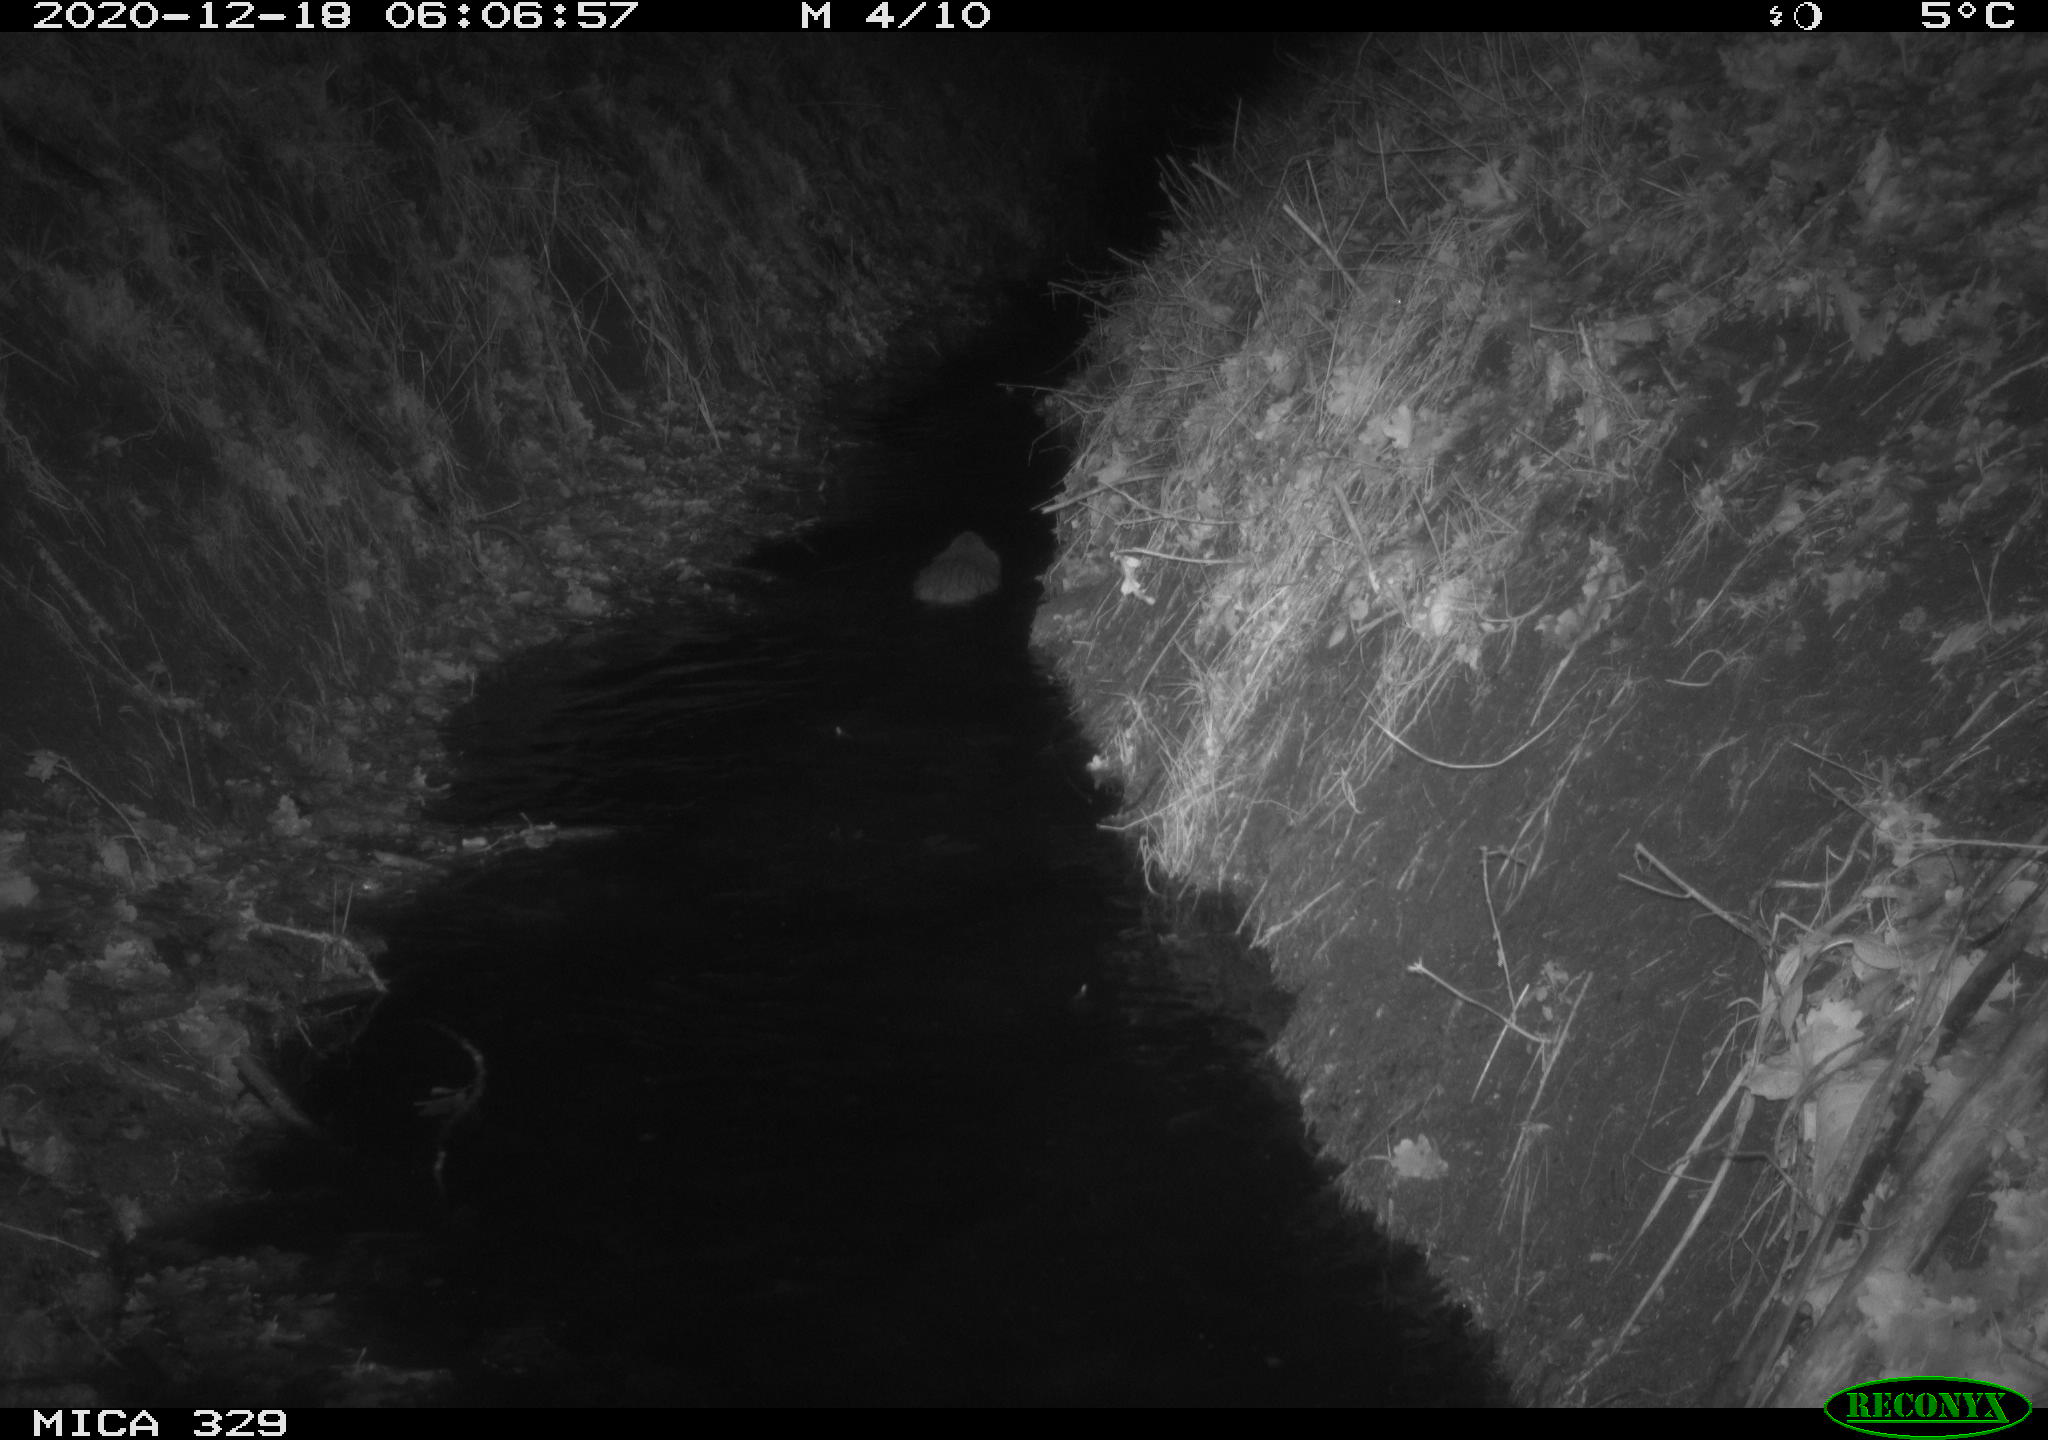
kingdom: Animalia
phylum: Chordata
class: Mammalia
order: Rodentia
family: Cricetidae
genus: Ondatra
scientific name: Ondatra zibethicus
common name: Muskrat
